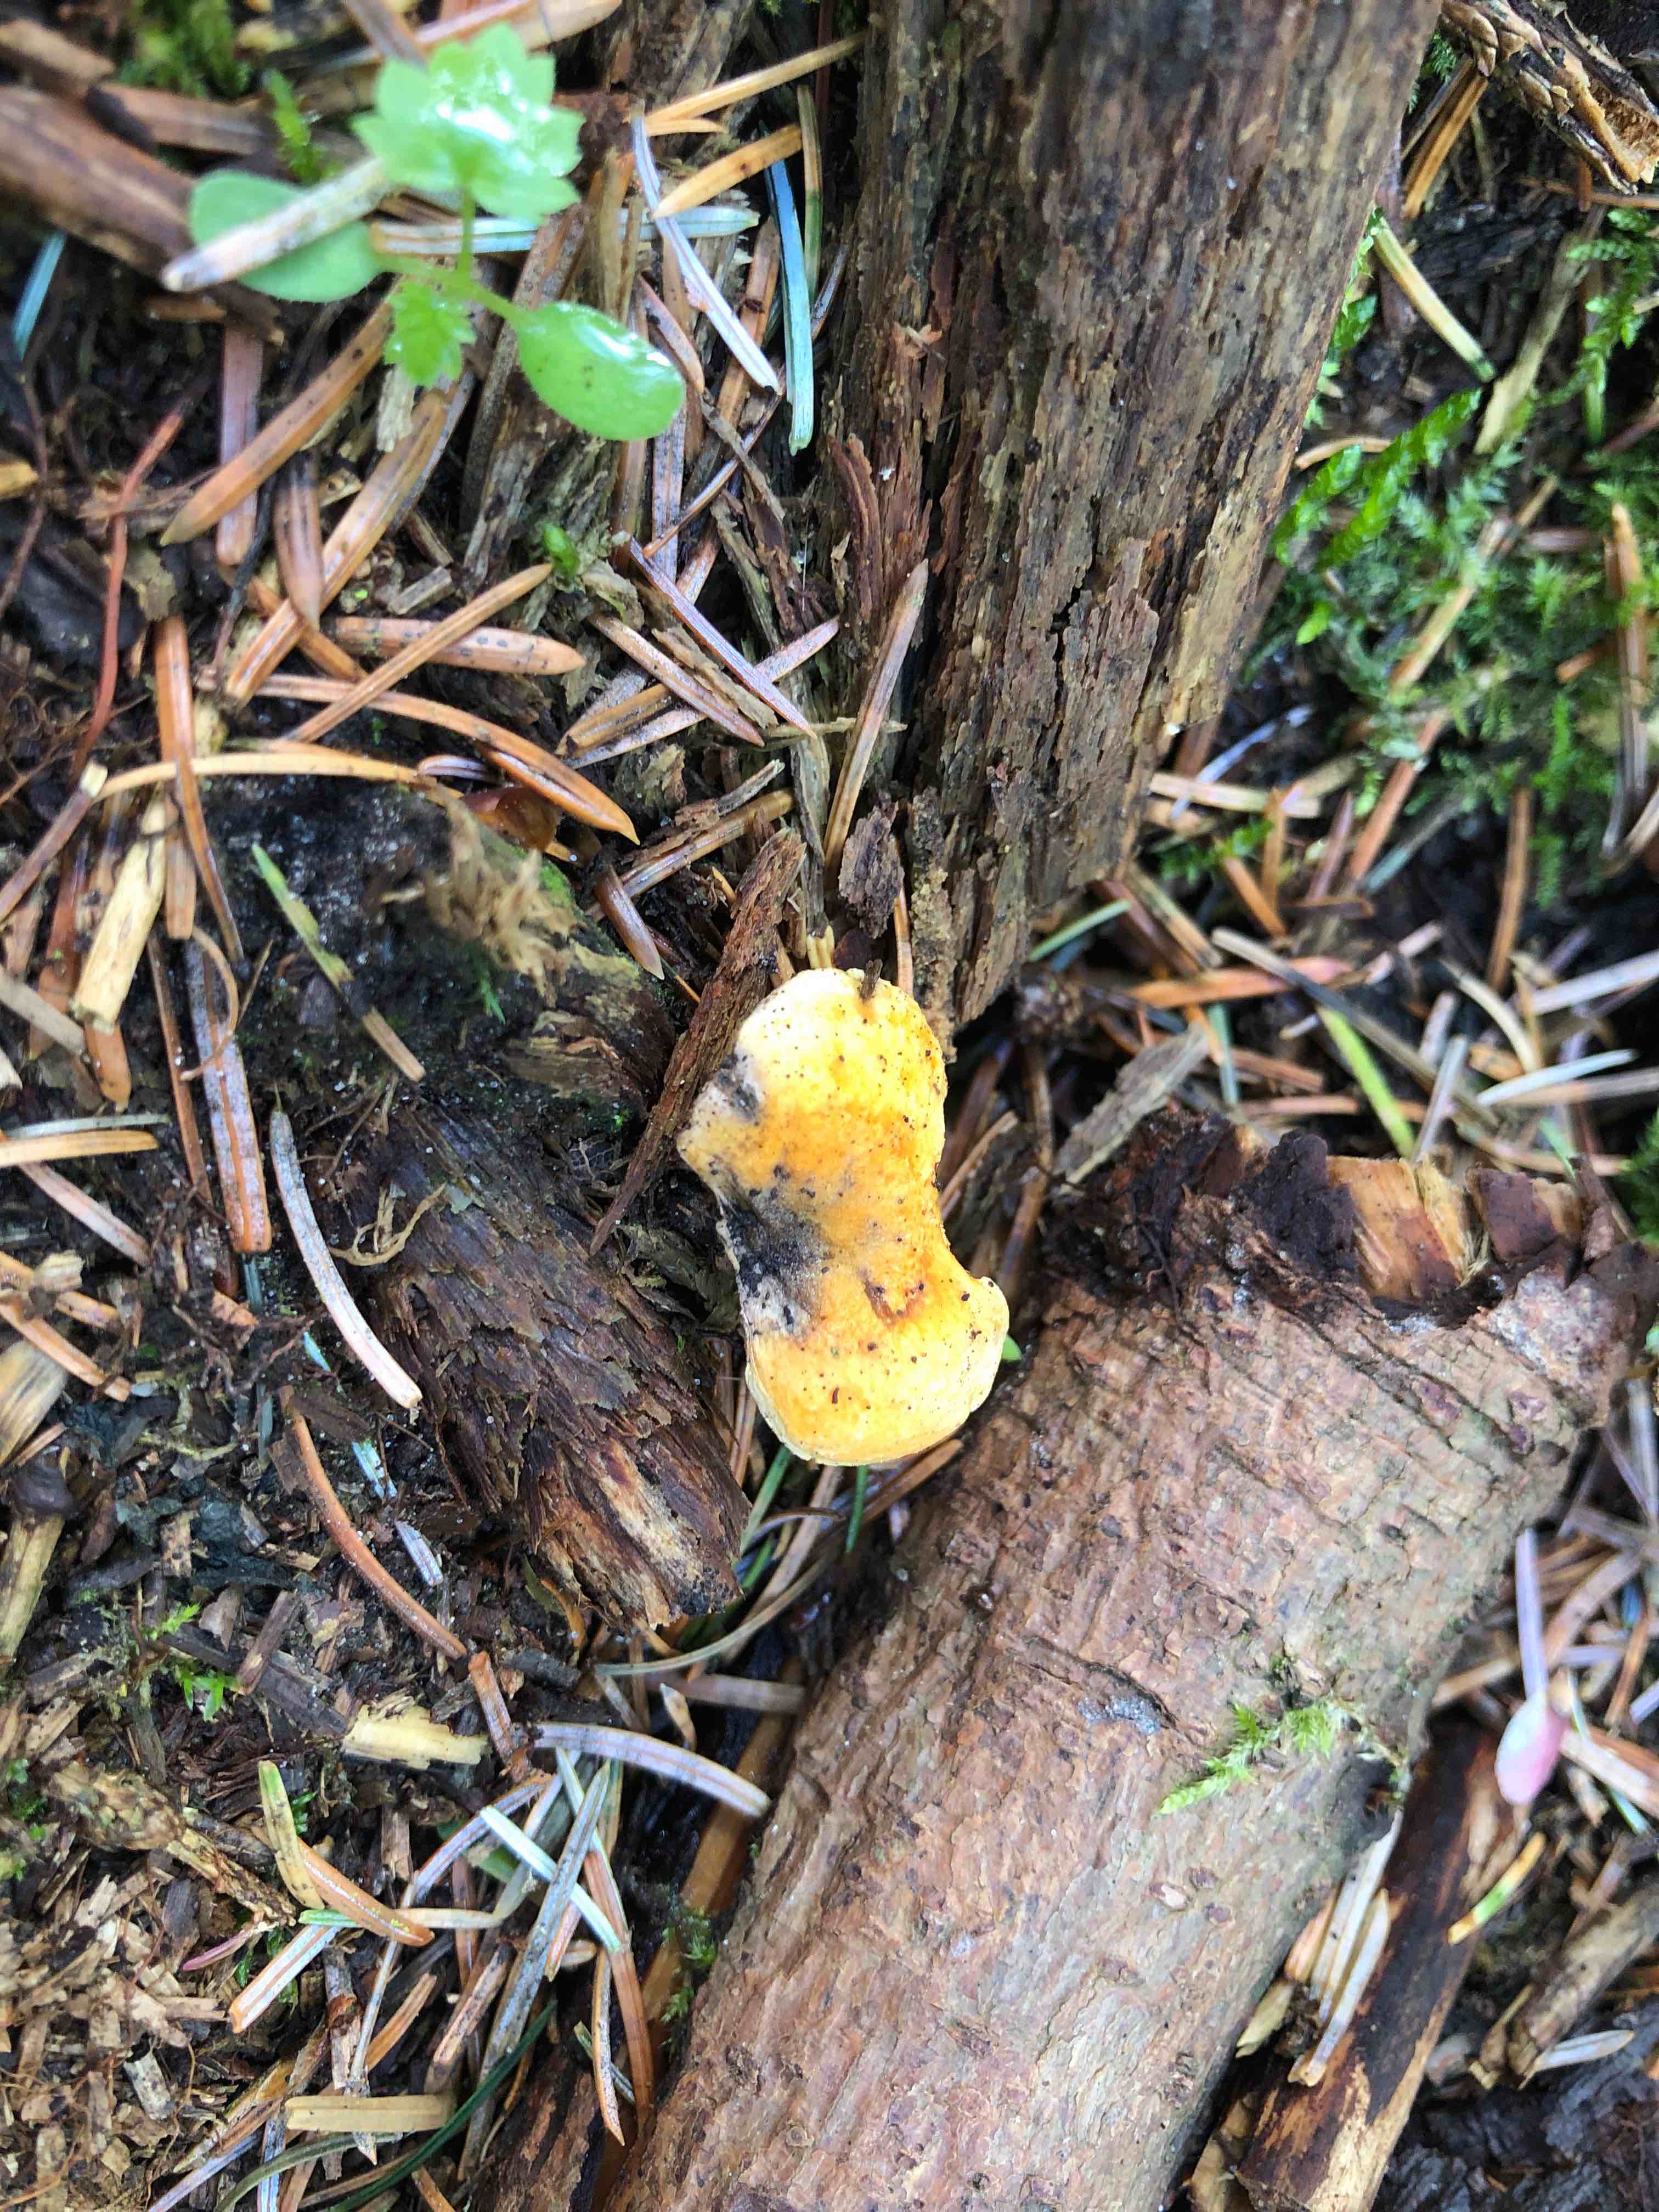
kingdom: Fungi
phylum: Basidiomycota
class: Agaricomycetes
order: Boletales
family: Hygrophoropsidaceae
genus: Hygrophoropsis
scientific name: Hygrophoropsis aurantiaca
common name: almindelig orangekantarel
